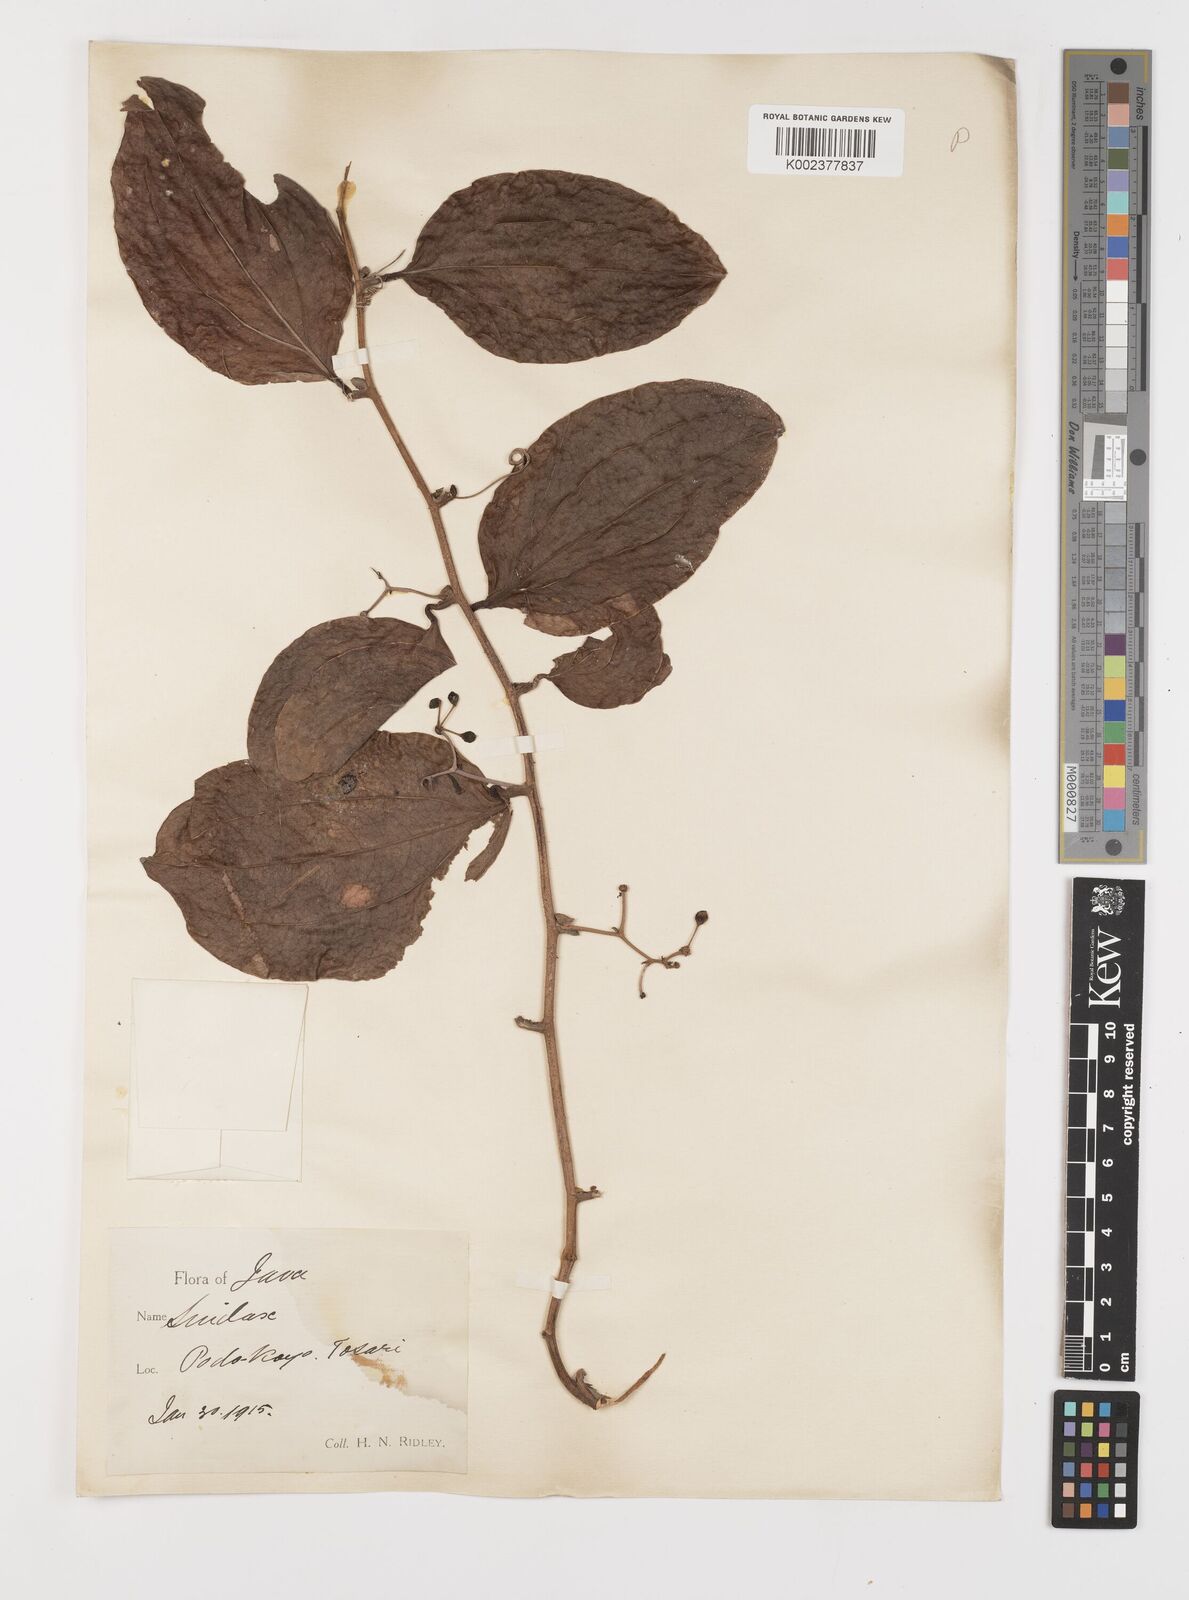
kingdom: Plantae
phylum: Tracheophyta
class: Liliopsida
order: Liliales
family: Smilacaceae
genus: Smilax
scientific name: Smilax
